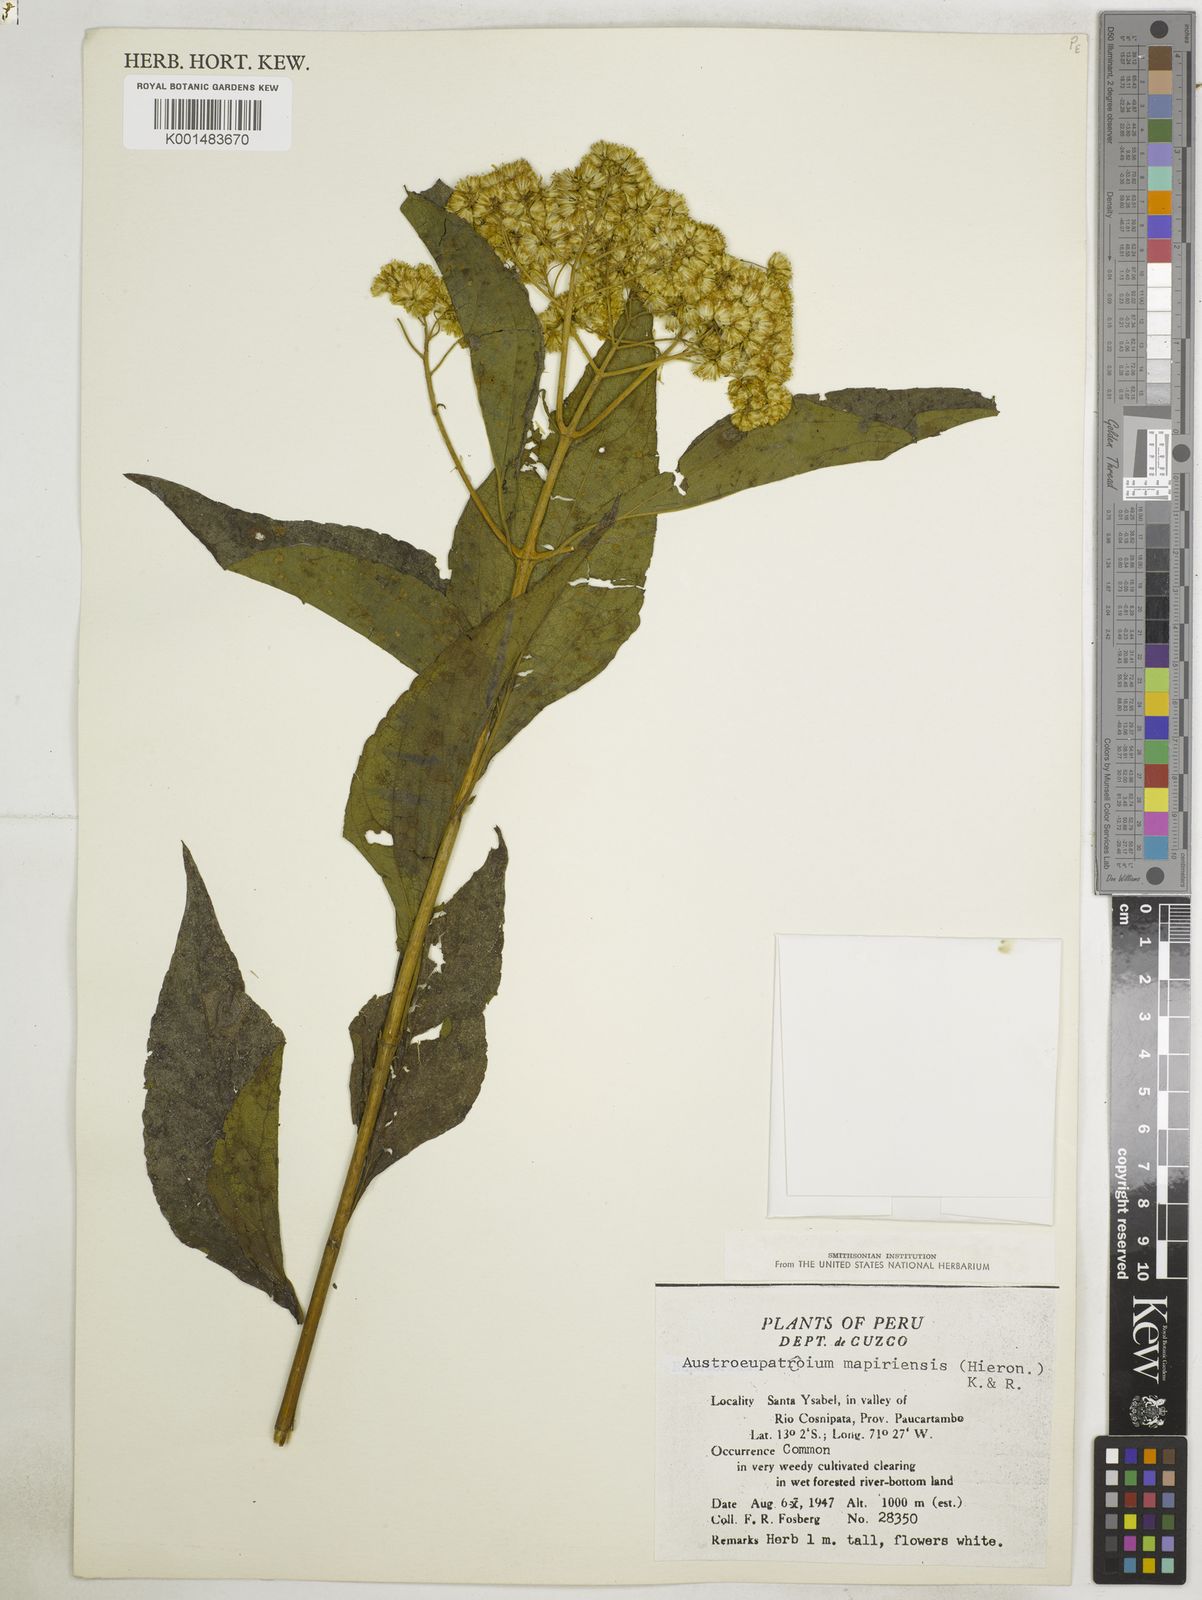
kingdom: Plantae
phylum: Tracheophyta
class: Magnoliopsida
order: Asterales
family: Asteraceae
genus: Austroeupatorium
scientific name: Austroeupatorium inulifolium
